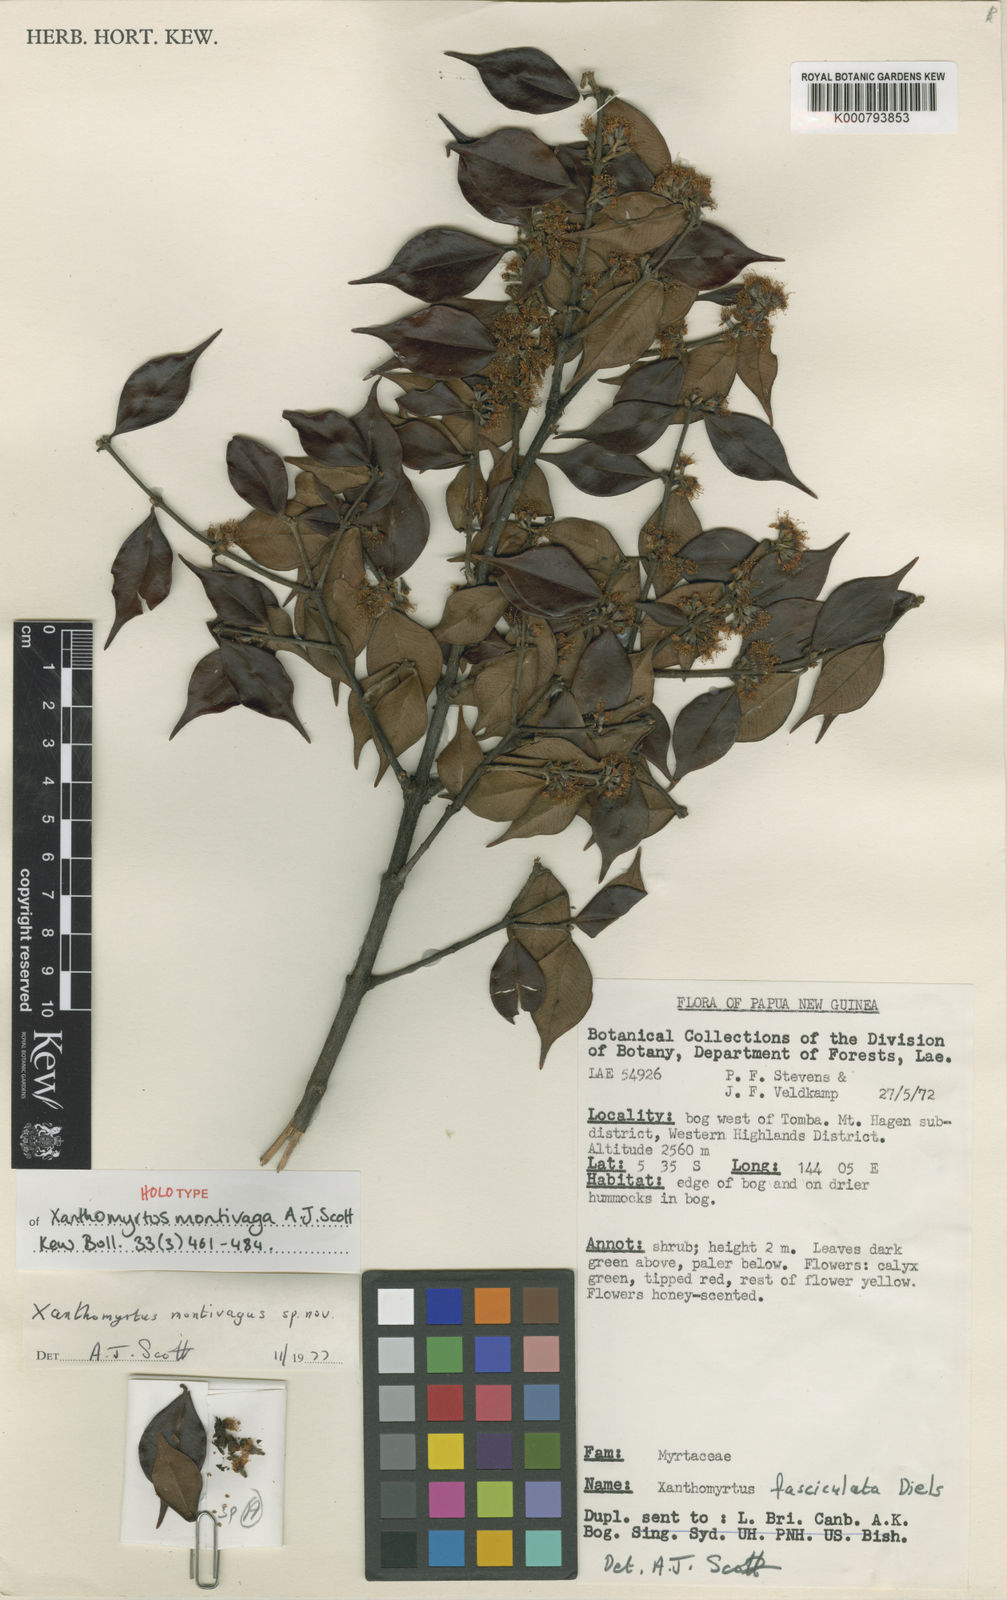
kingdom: Plantae
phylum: Tracheophyta
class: Magnoliopsida
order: Myrtales
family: Myrtaceae
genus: Xanthomyrtus
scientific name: Xanthomyrtus montivaga
